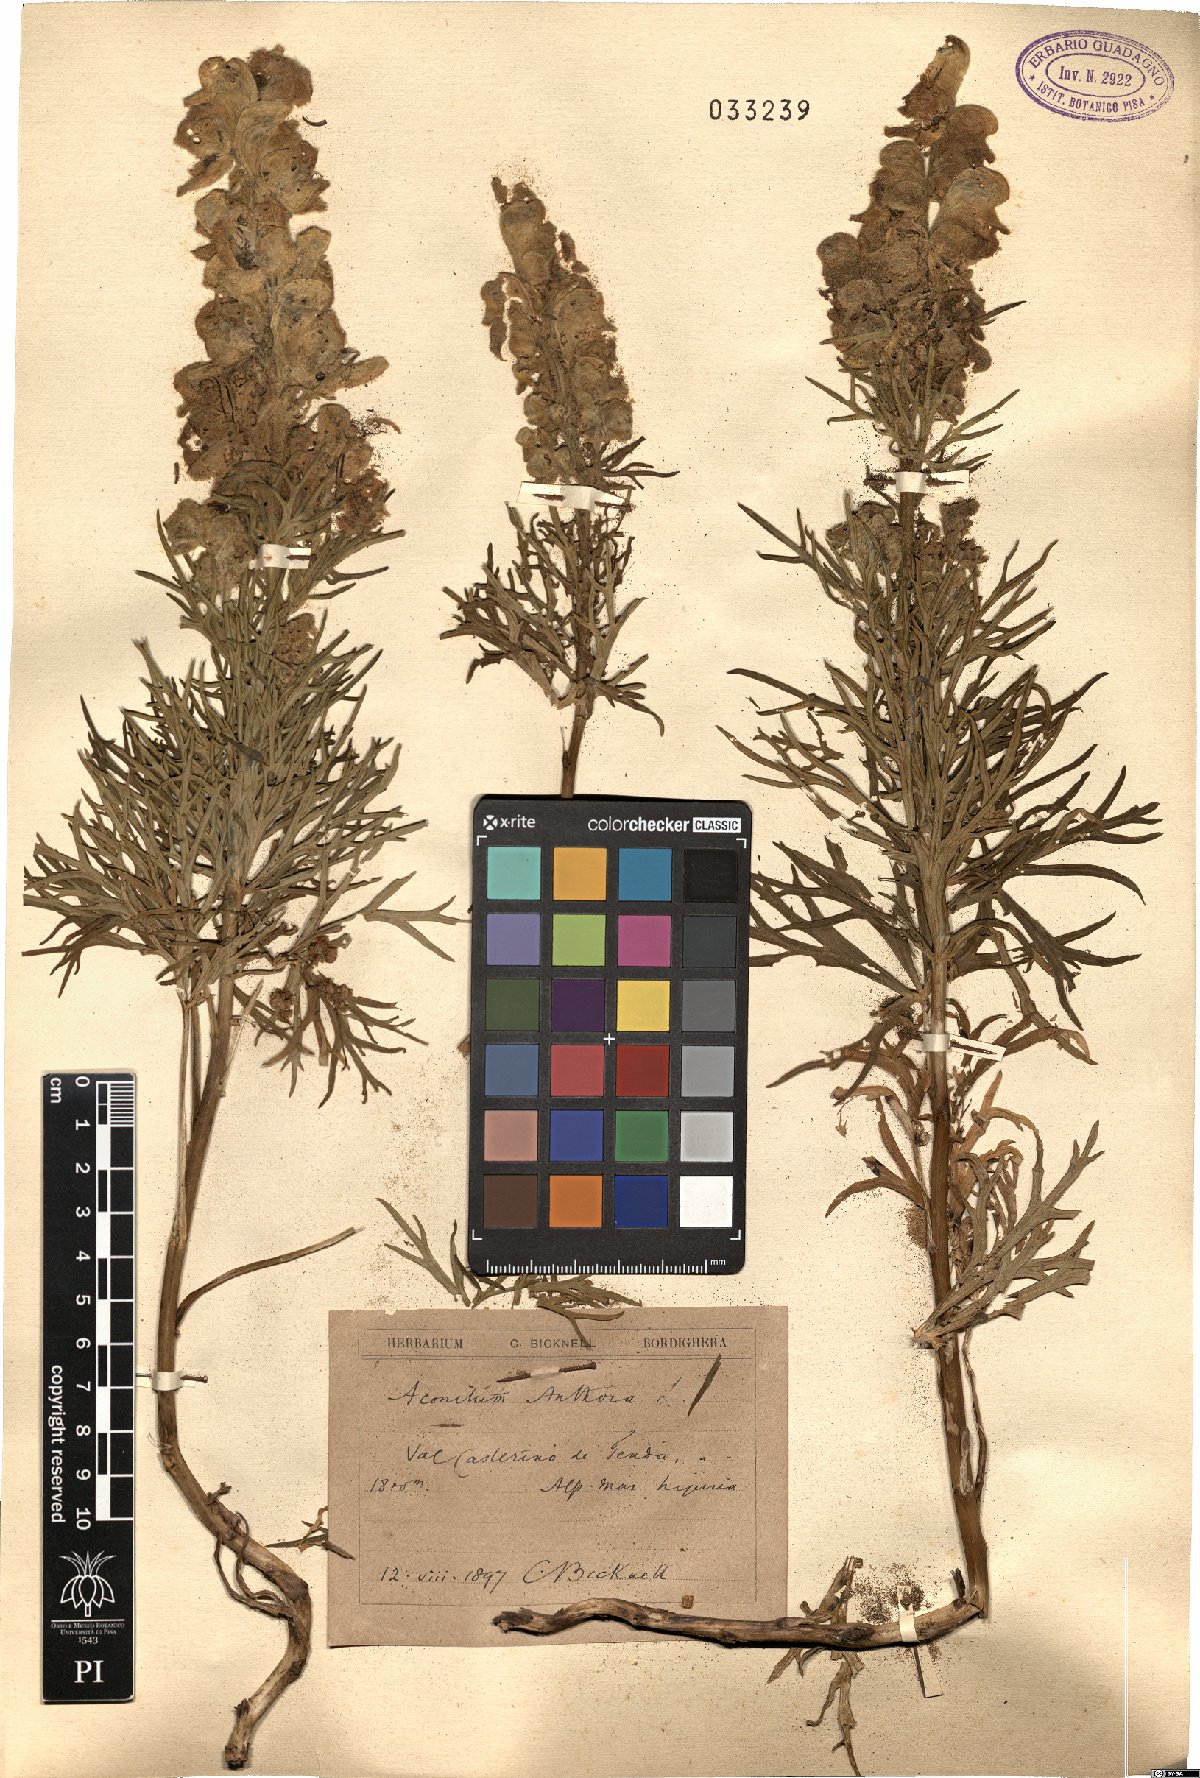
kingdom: Plantae
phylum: Tracheophyta
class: Magnoliopsida
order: Ranunculales
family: Ranunculaceae
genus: Aconitum
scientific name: Aconitum anthora
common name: Yellow monkshood
